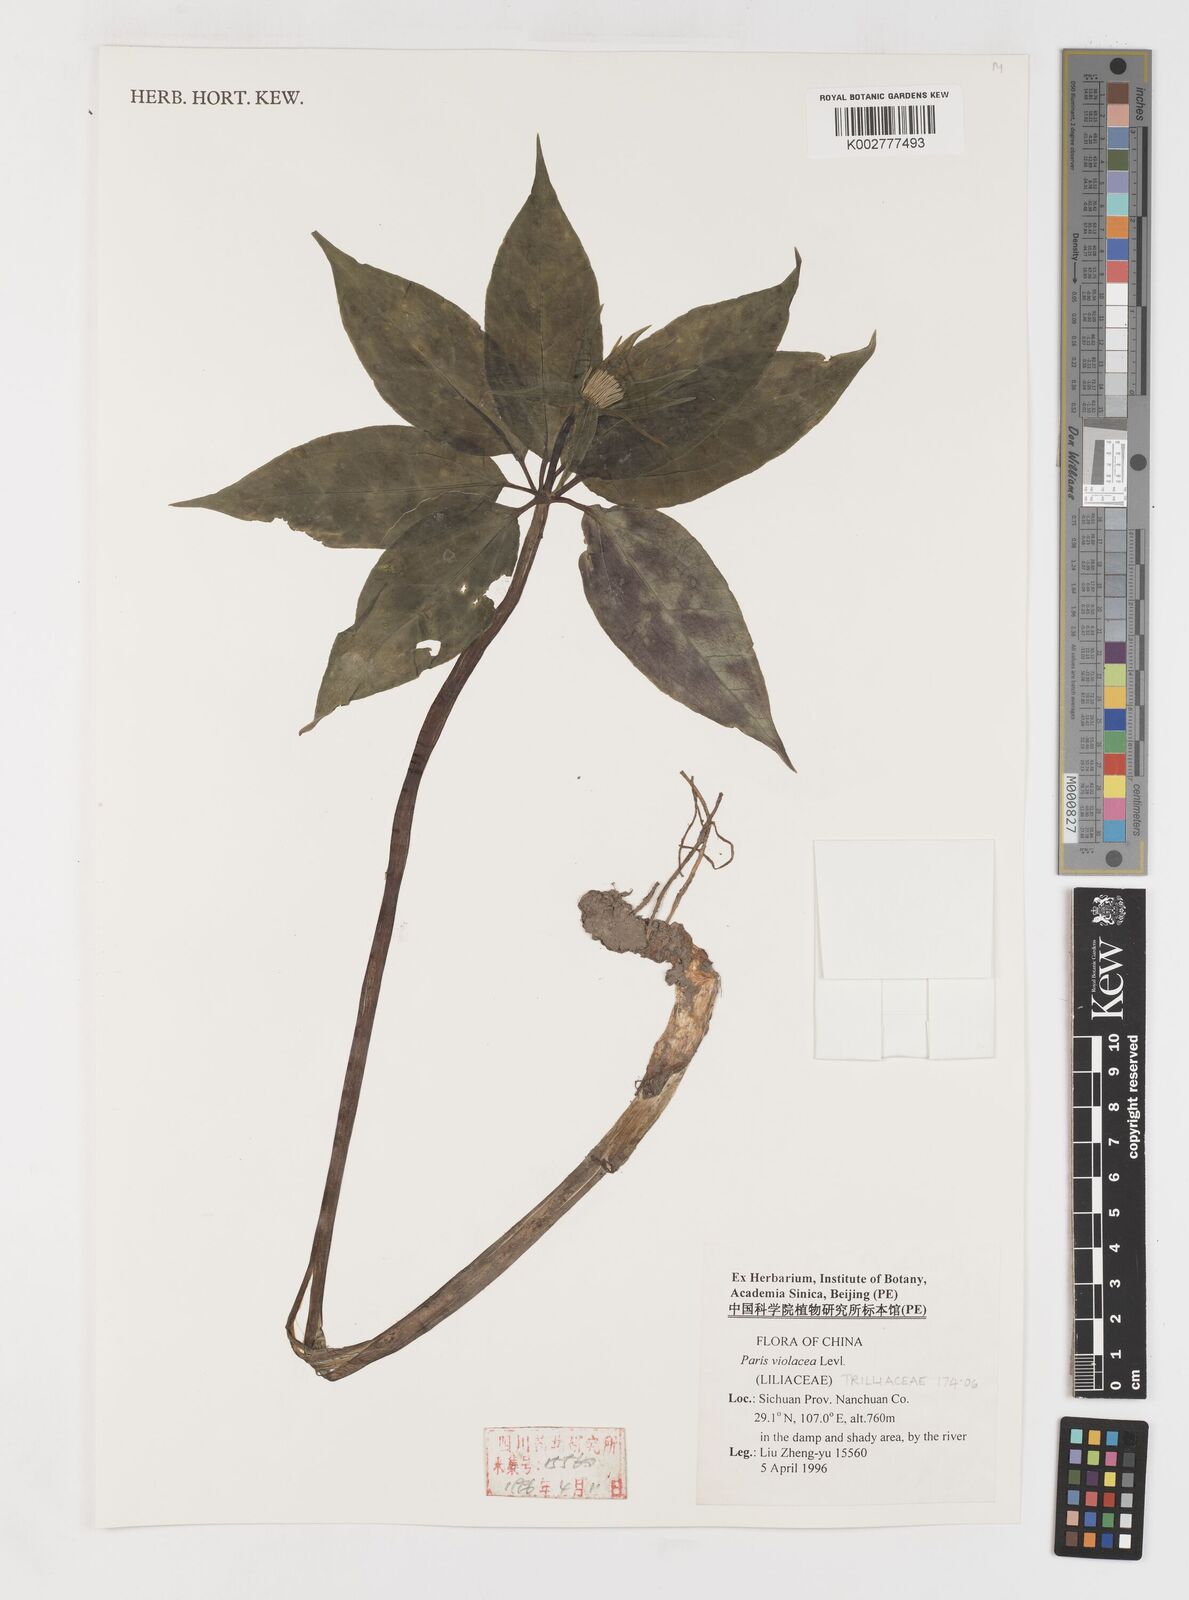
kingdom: Plantae
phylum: Tracheophyta
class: Liliopsida
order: Liliales
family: Melanthiaceae
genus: Paris
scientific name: Paris delavayi
